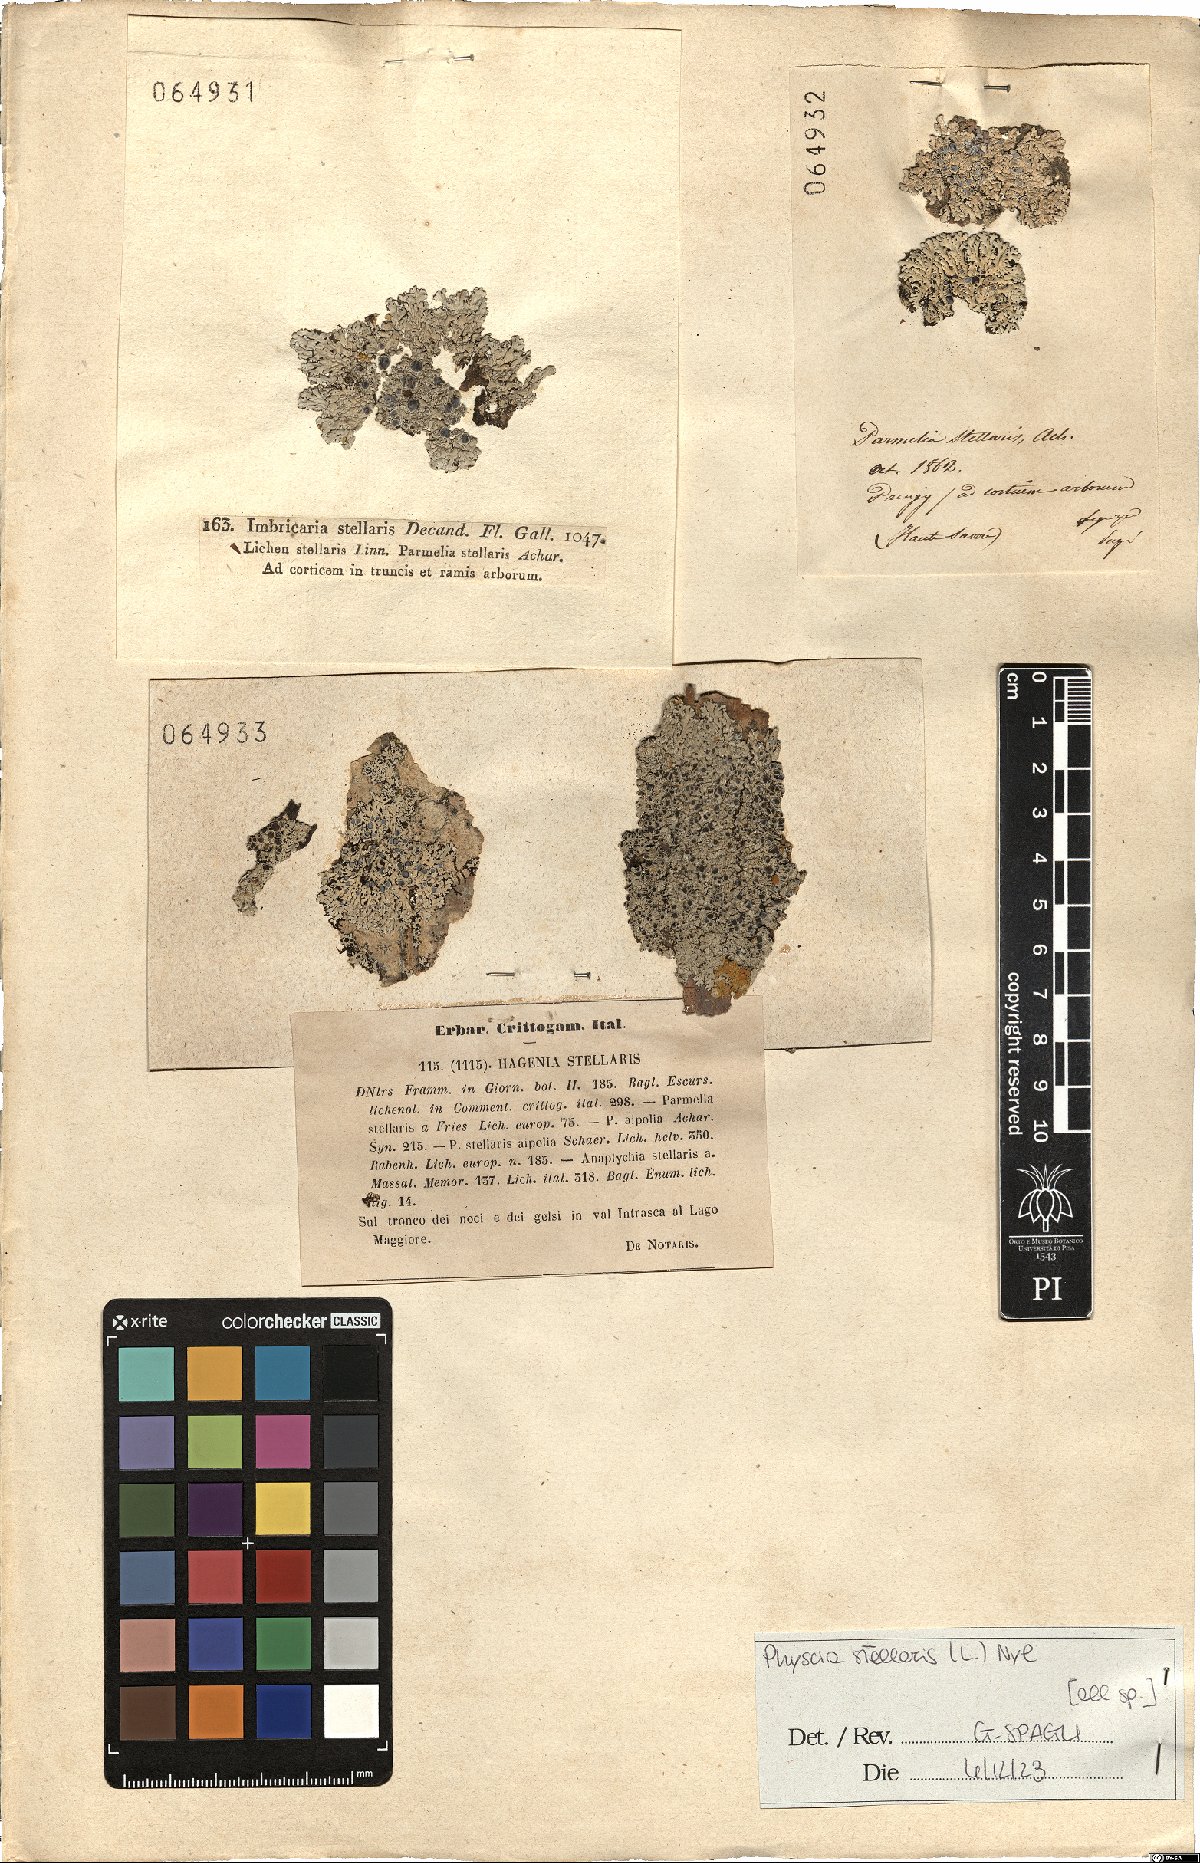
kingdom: Fungi
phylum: Ascomycota
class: Lecanoromycetes
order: Caliciales
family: Physciaceae
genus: Physcia
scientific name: Physcia stellaris
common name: Star rosette lichen
